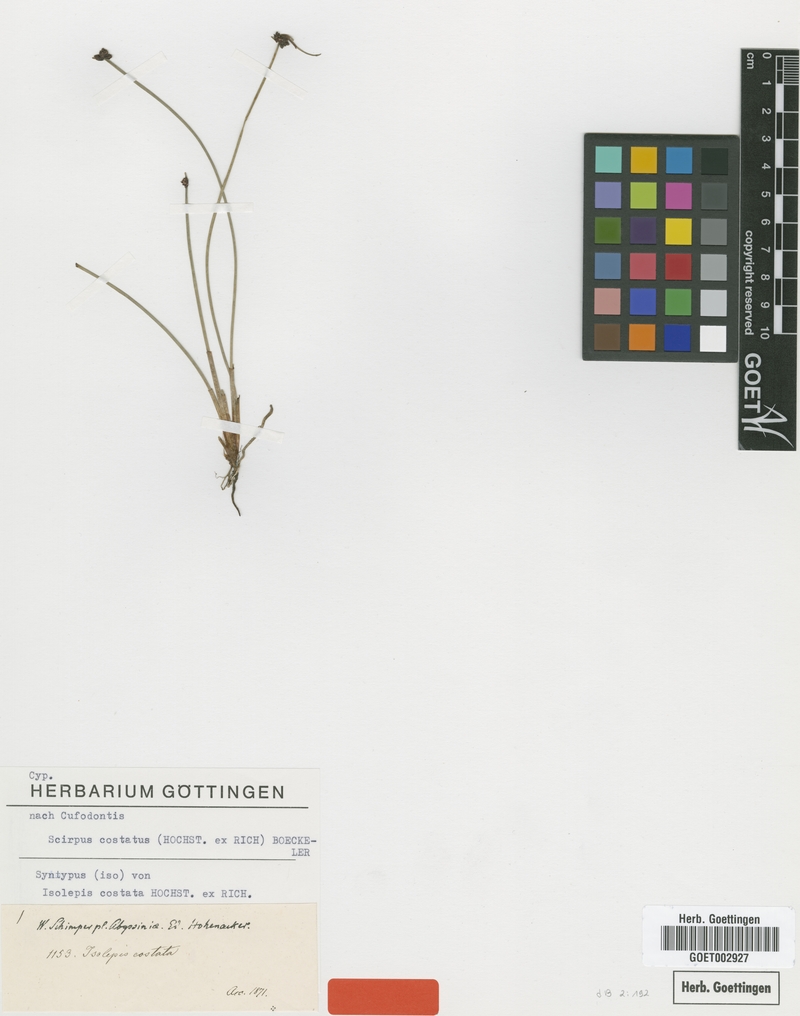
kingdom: Plantae
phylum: Tracheophyta
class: Liliopsida
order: Poales
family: Cyperaceae
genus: Isolepis
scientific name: Isolepis costata
